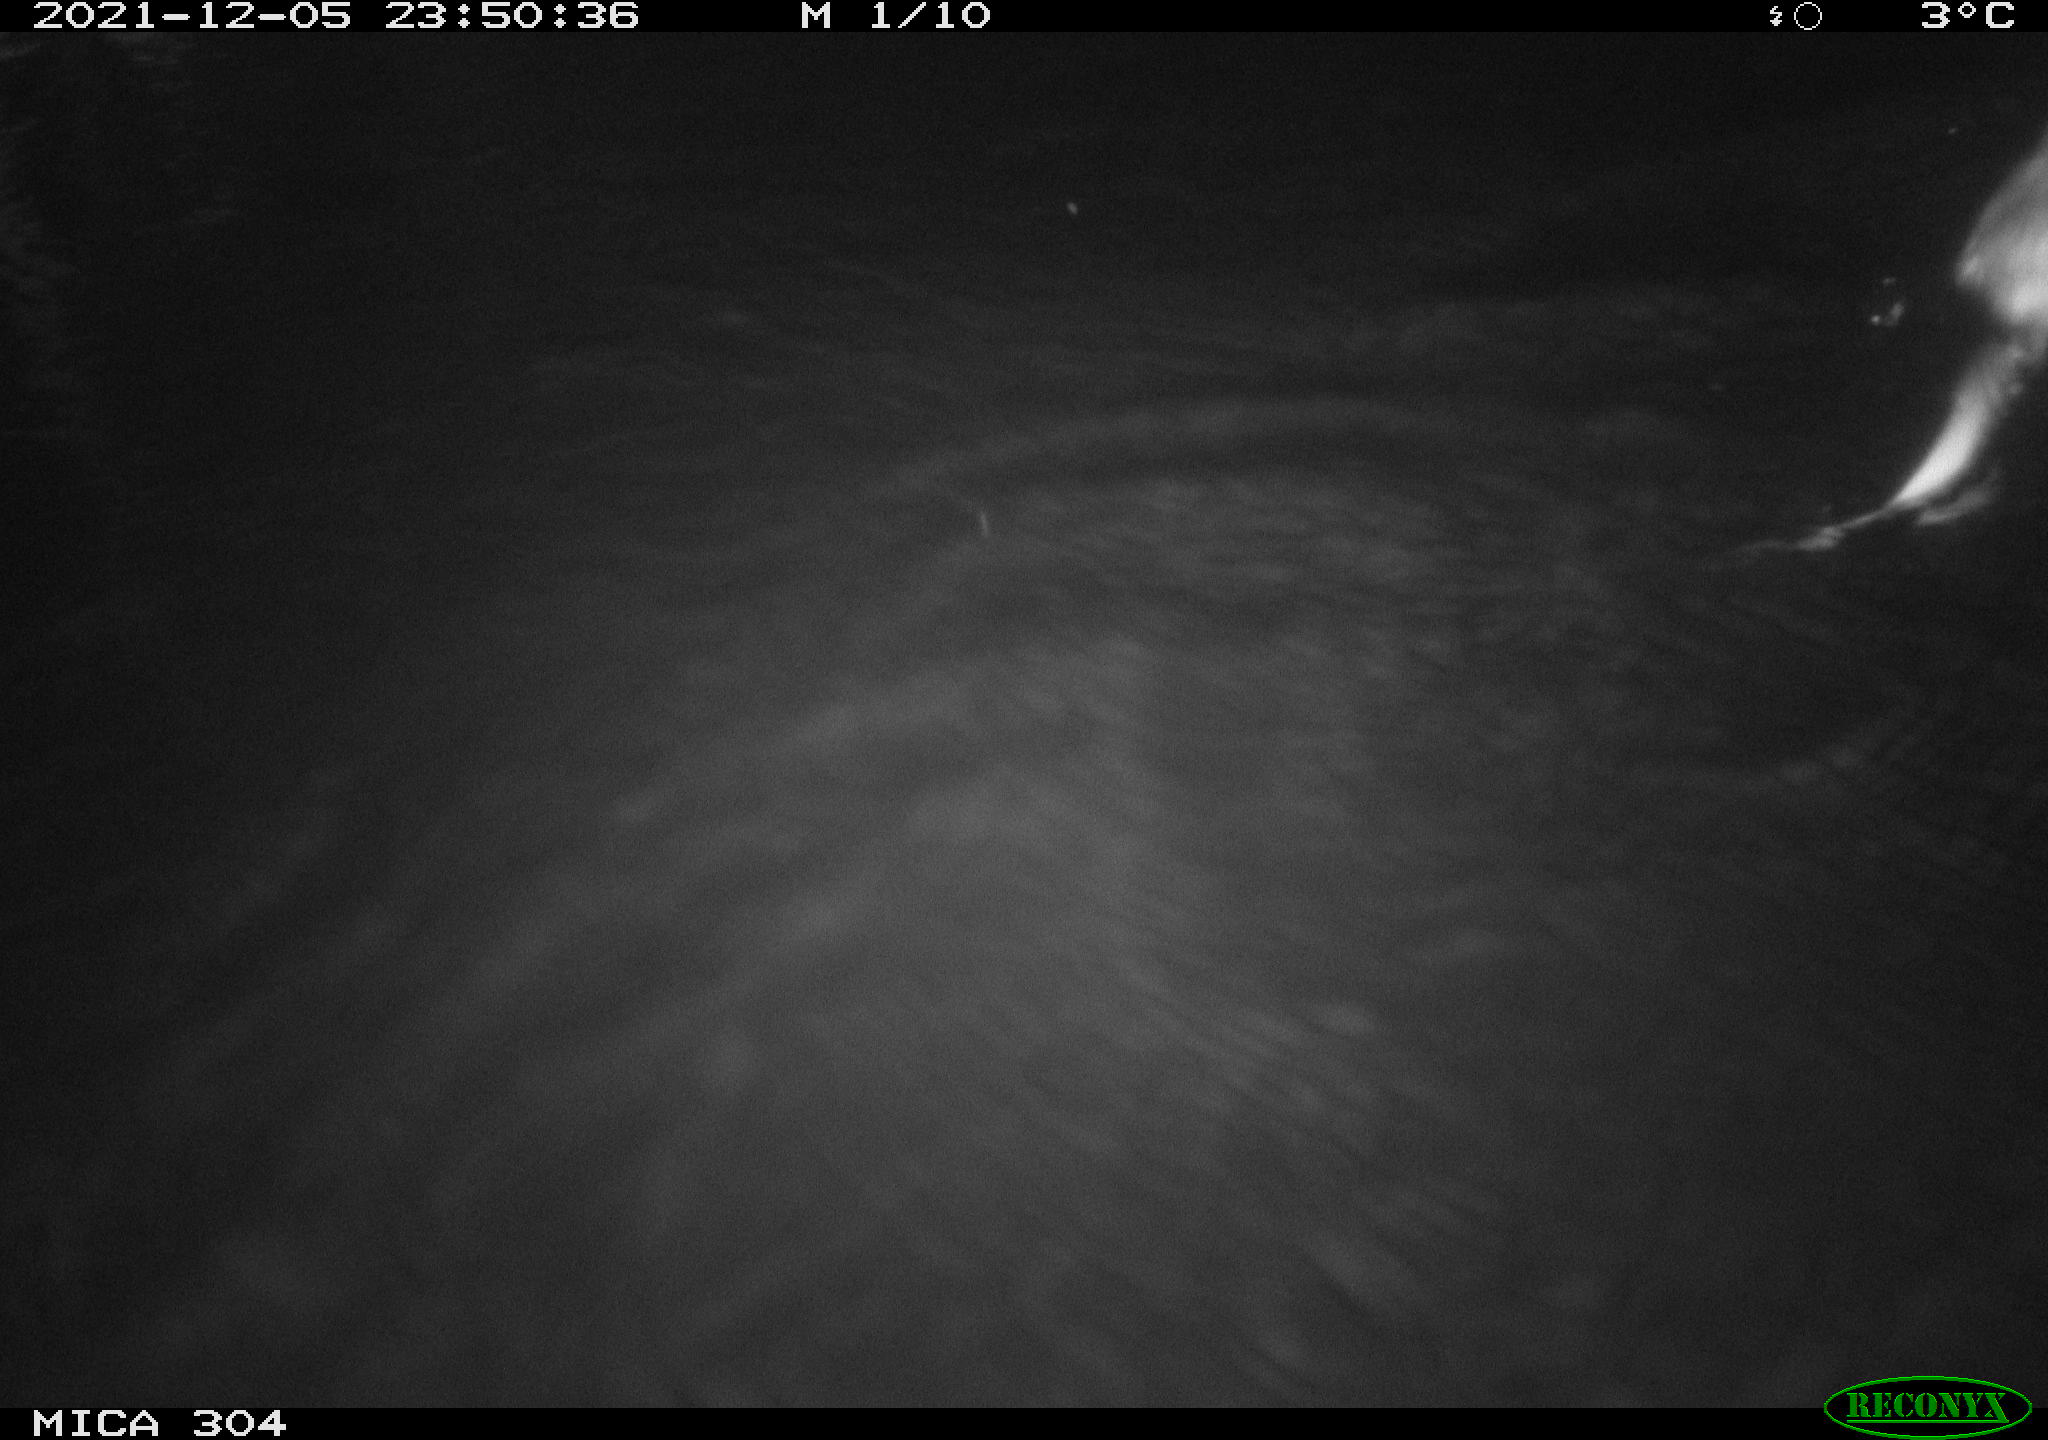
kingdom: Animalia
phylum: Chordata
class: Mammalia
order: Rodentia
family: Cricetidae
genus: Ondatra
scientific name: Ondatra zibethicus
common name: Muskrat
